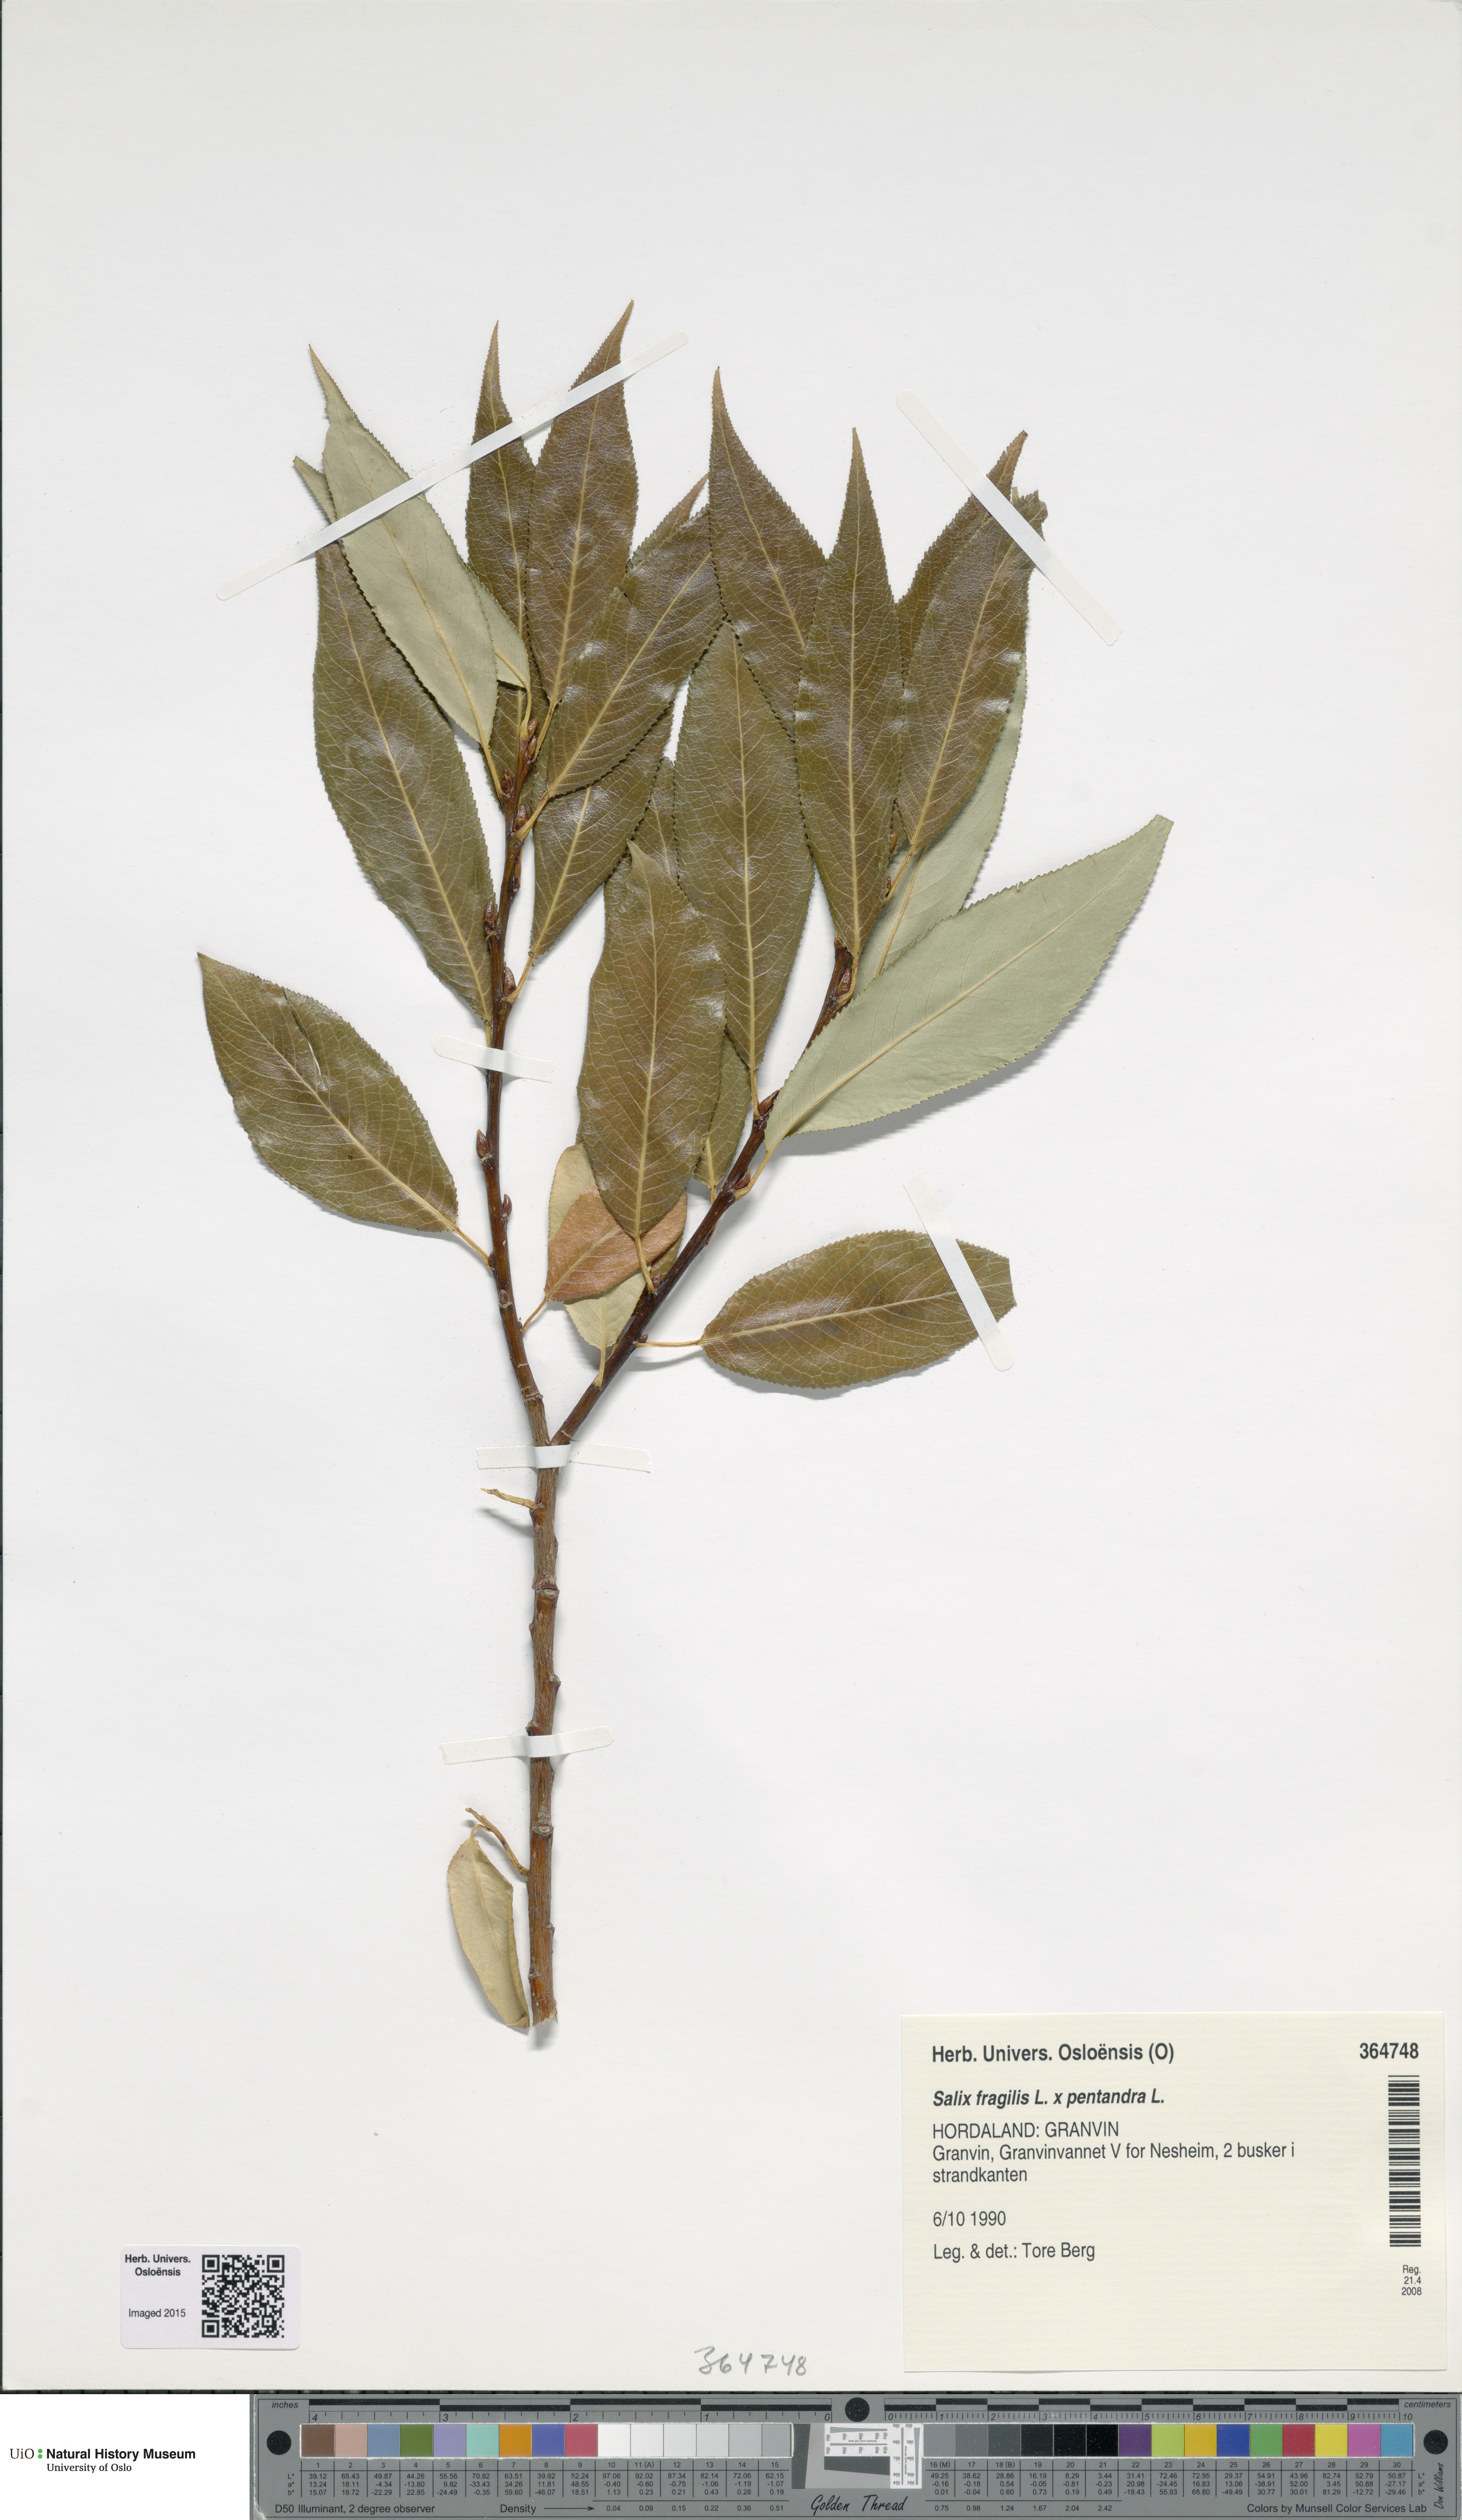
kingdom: Plantae
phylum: Tracheophyta
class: Magnoliopsida
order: Malpighiales
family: Salicaceae
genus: Salix
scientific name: Salix
